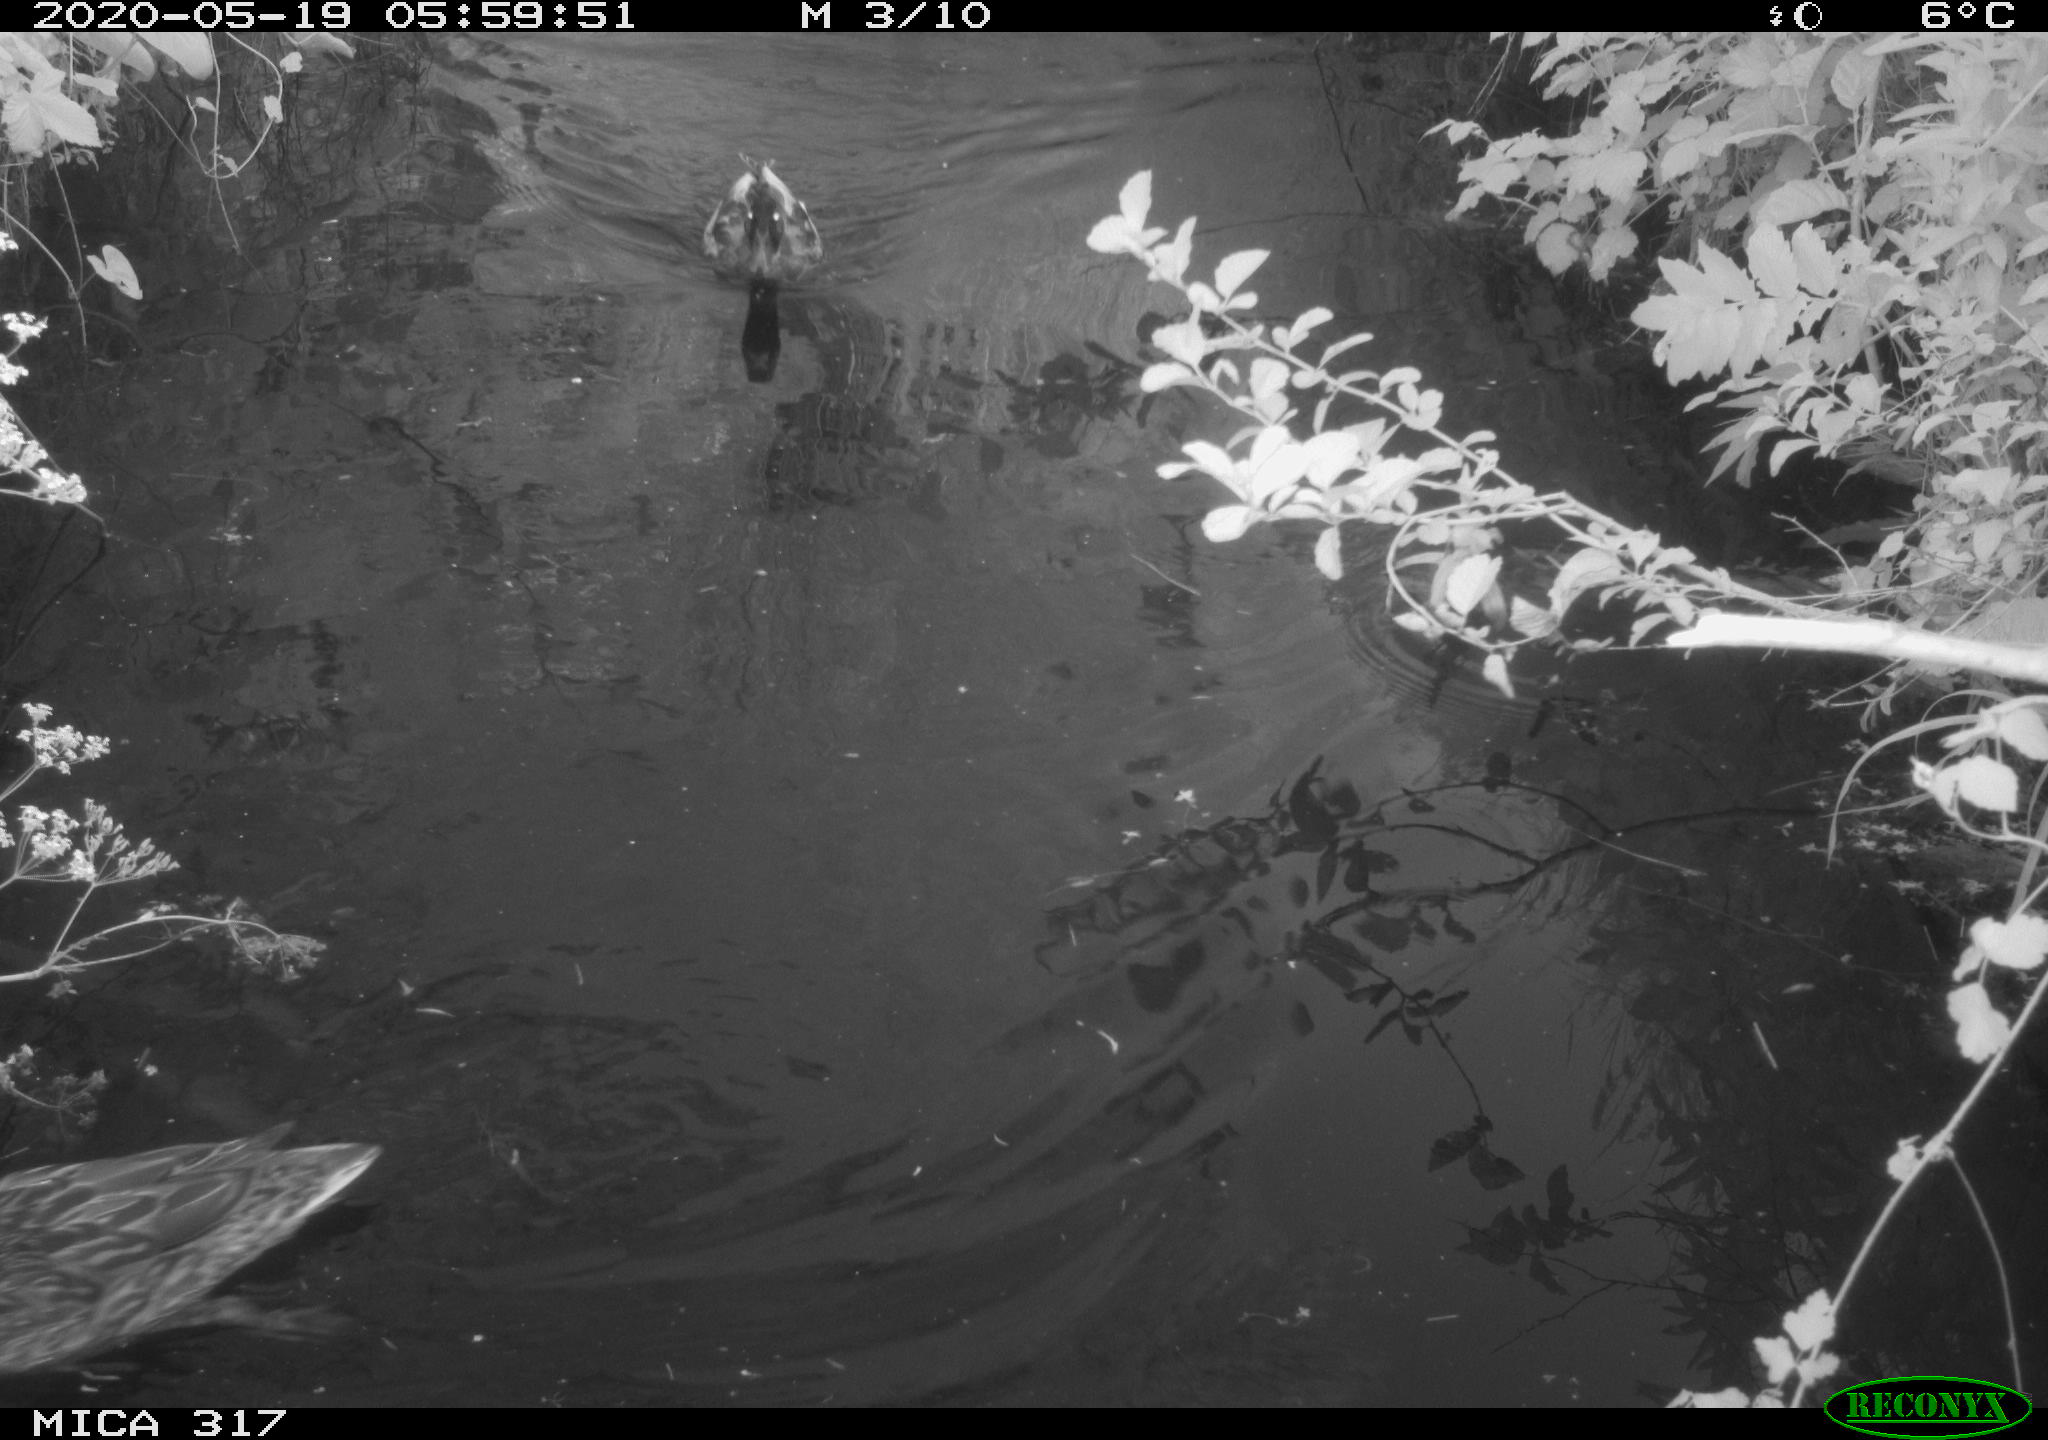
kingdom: Animalia
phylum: Chordata
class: Aves
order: Anseriformes
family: Anatidae
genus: Anas
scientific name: Anas platyrhynchos
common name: Mallard
